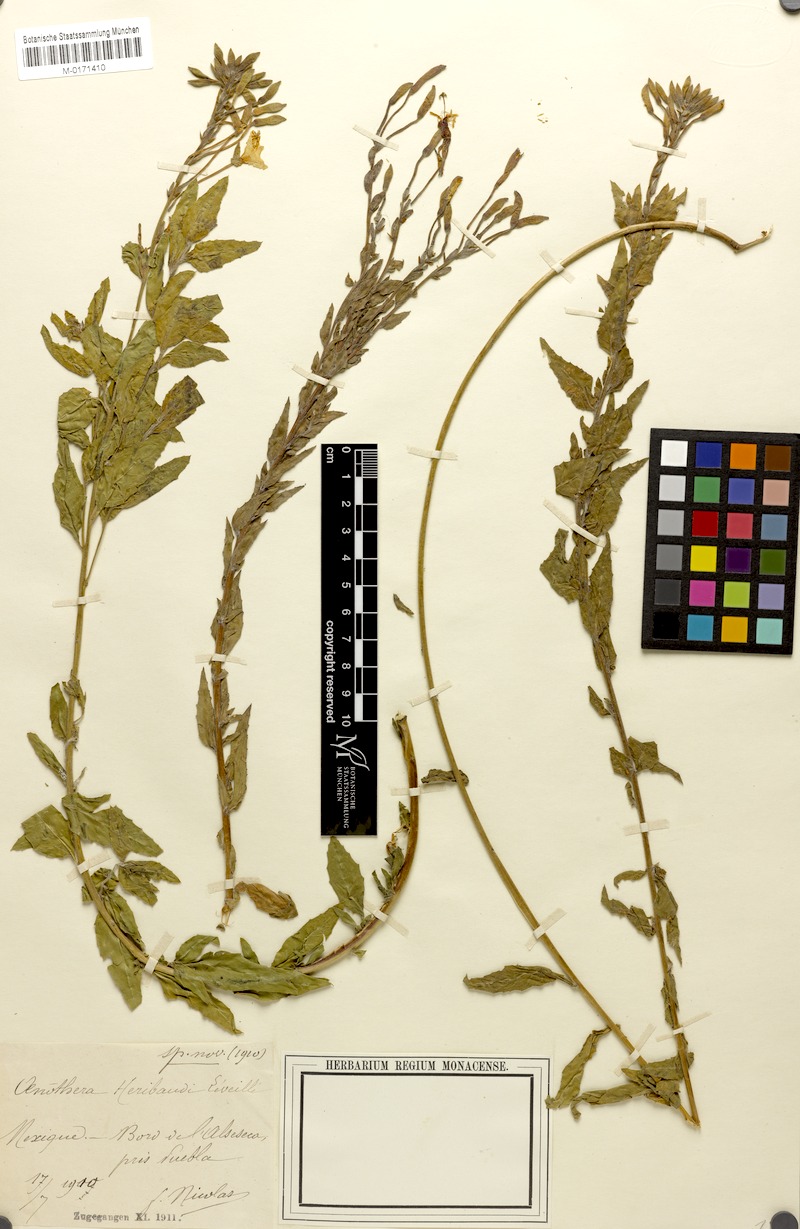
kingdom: Plantae
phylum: Tracheophyta
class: Magnoliopsida
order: Myrtales
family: Onagraceae
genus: Oenothera
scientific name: Oenothera anomala
